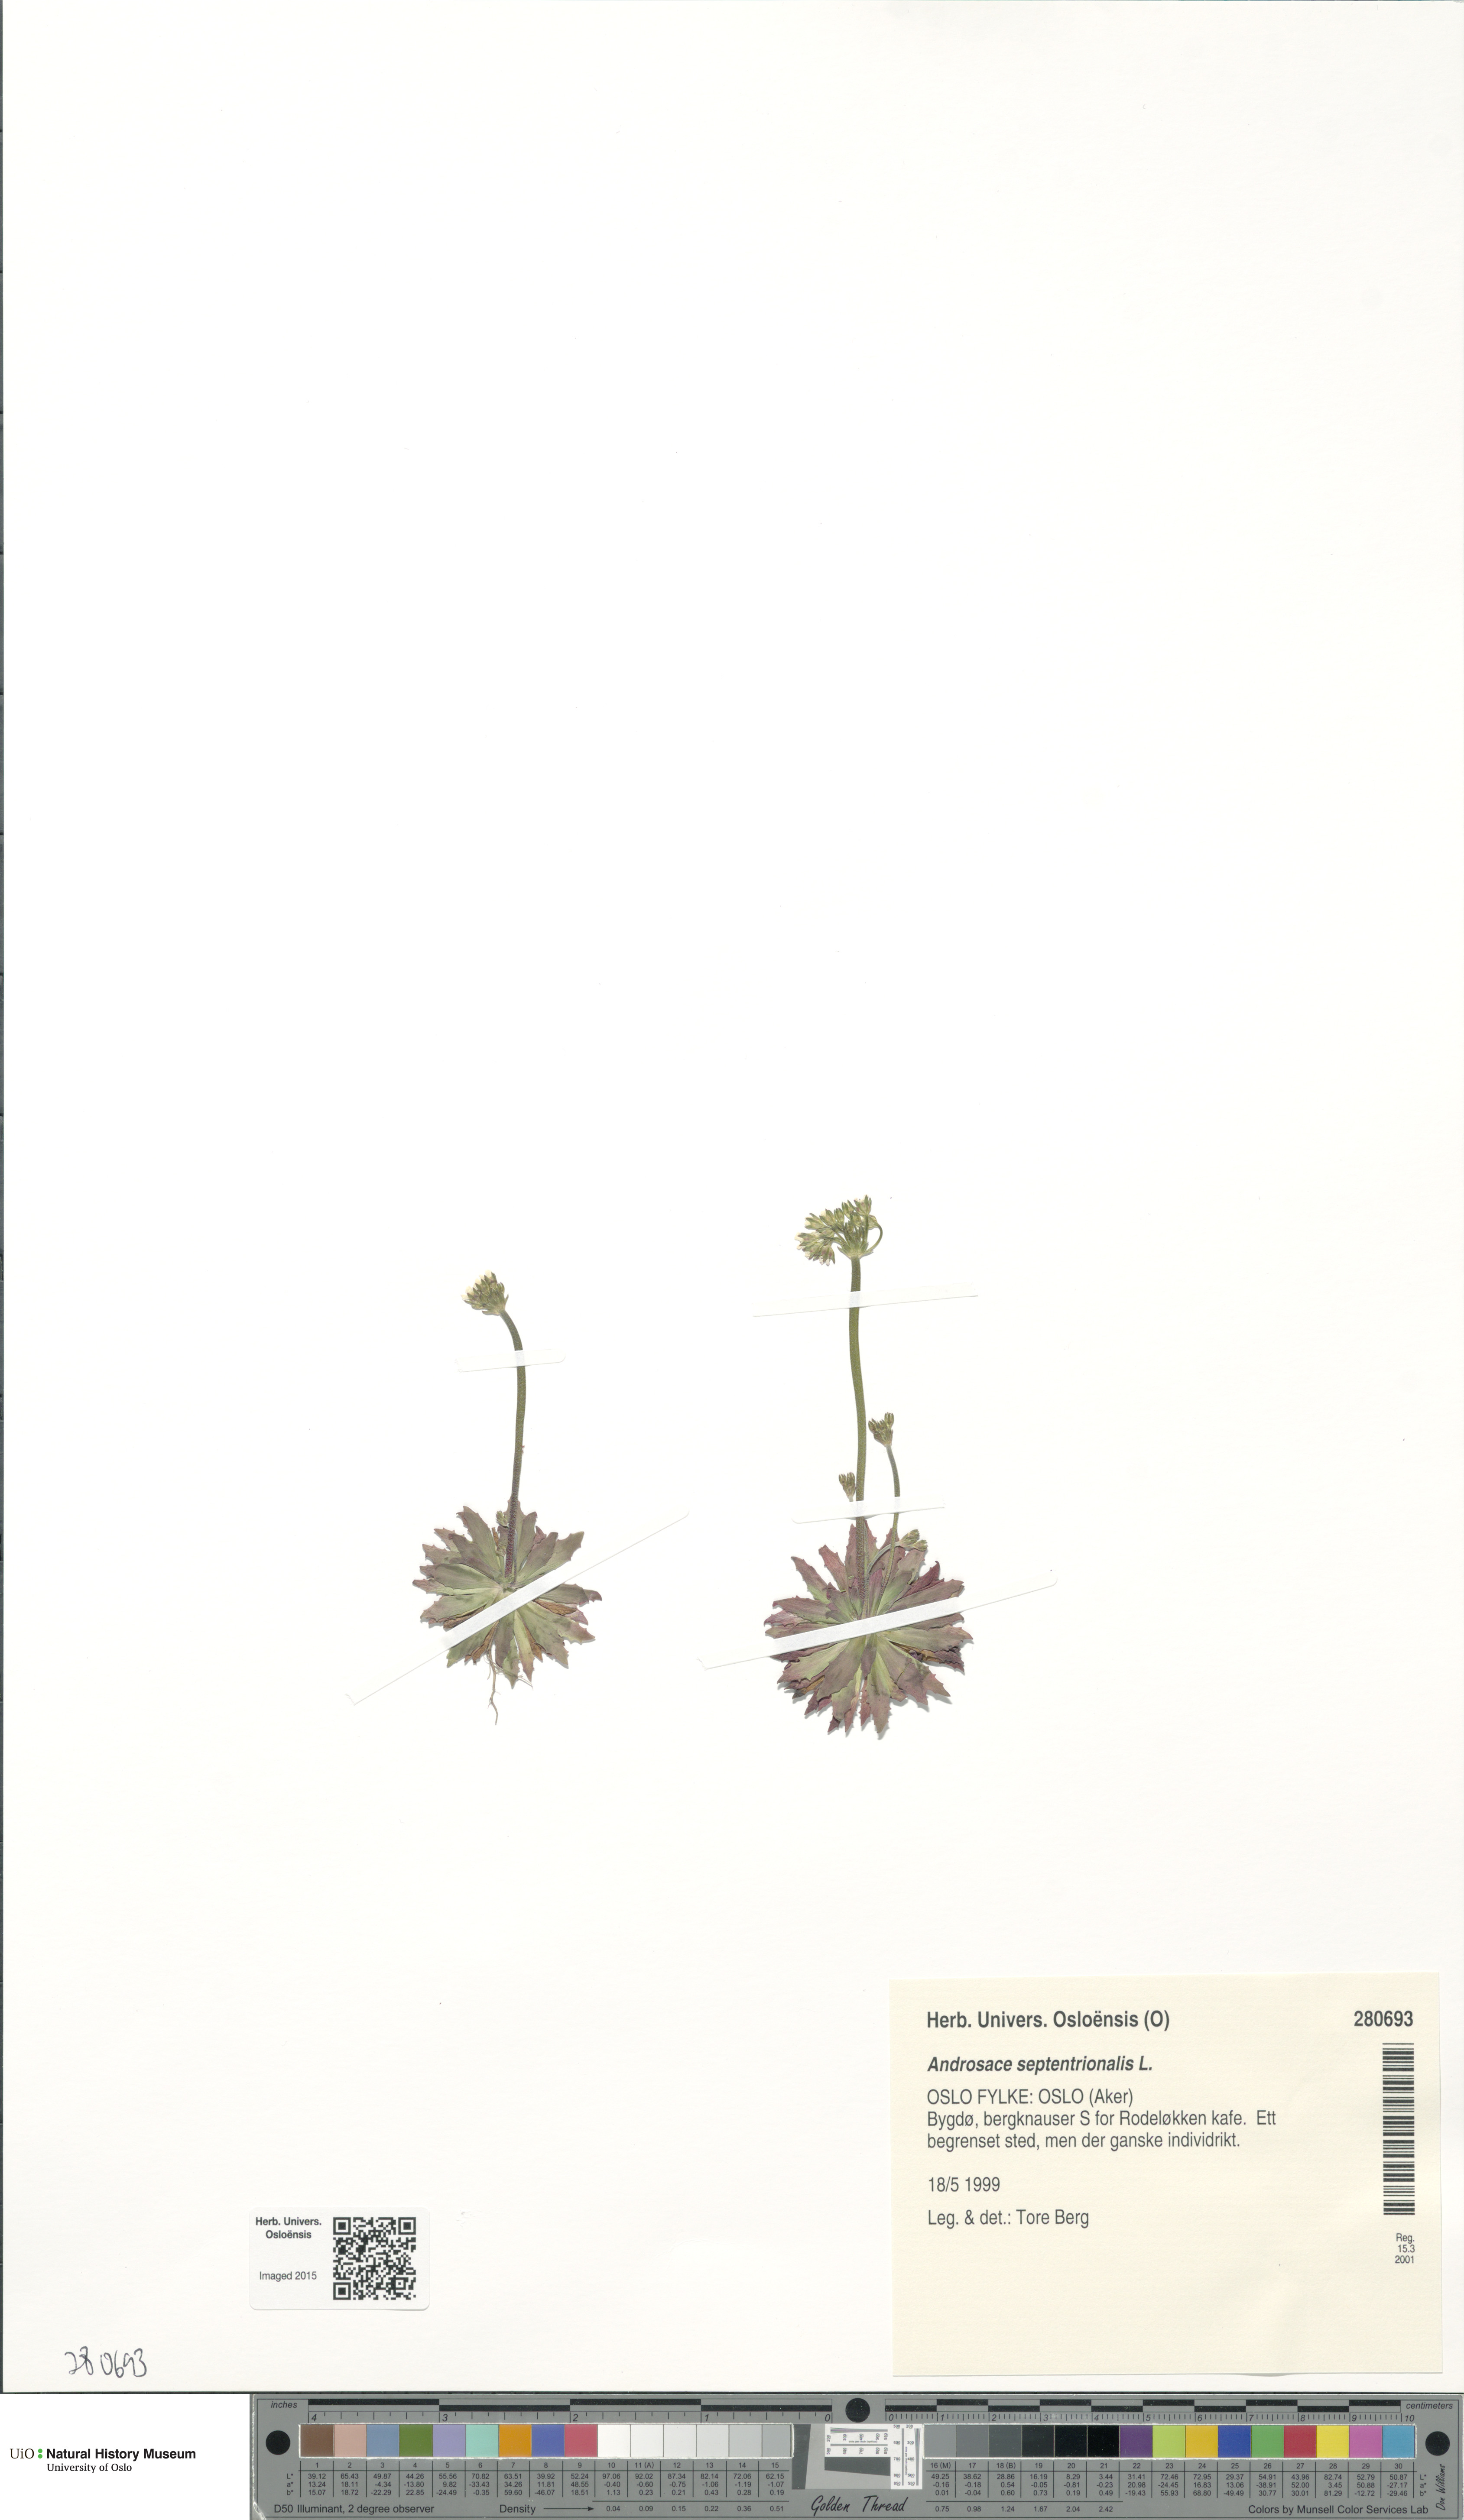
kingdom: Plantae
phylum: Tracheophyta
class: Magnoliopsida
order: Ericales
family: Primulaceae
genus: Androsace
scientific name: Androsace septentrionalis
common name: Hairy northern fairy-candelabra
